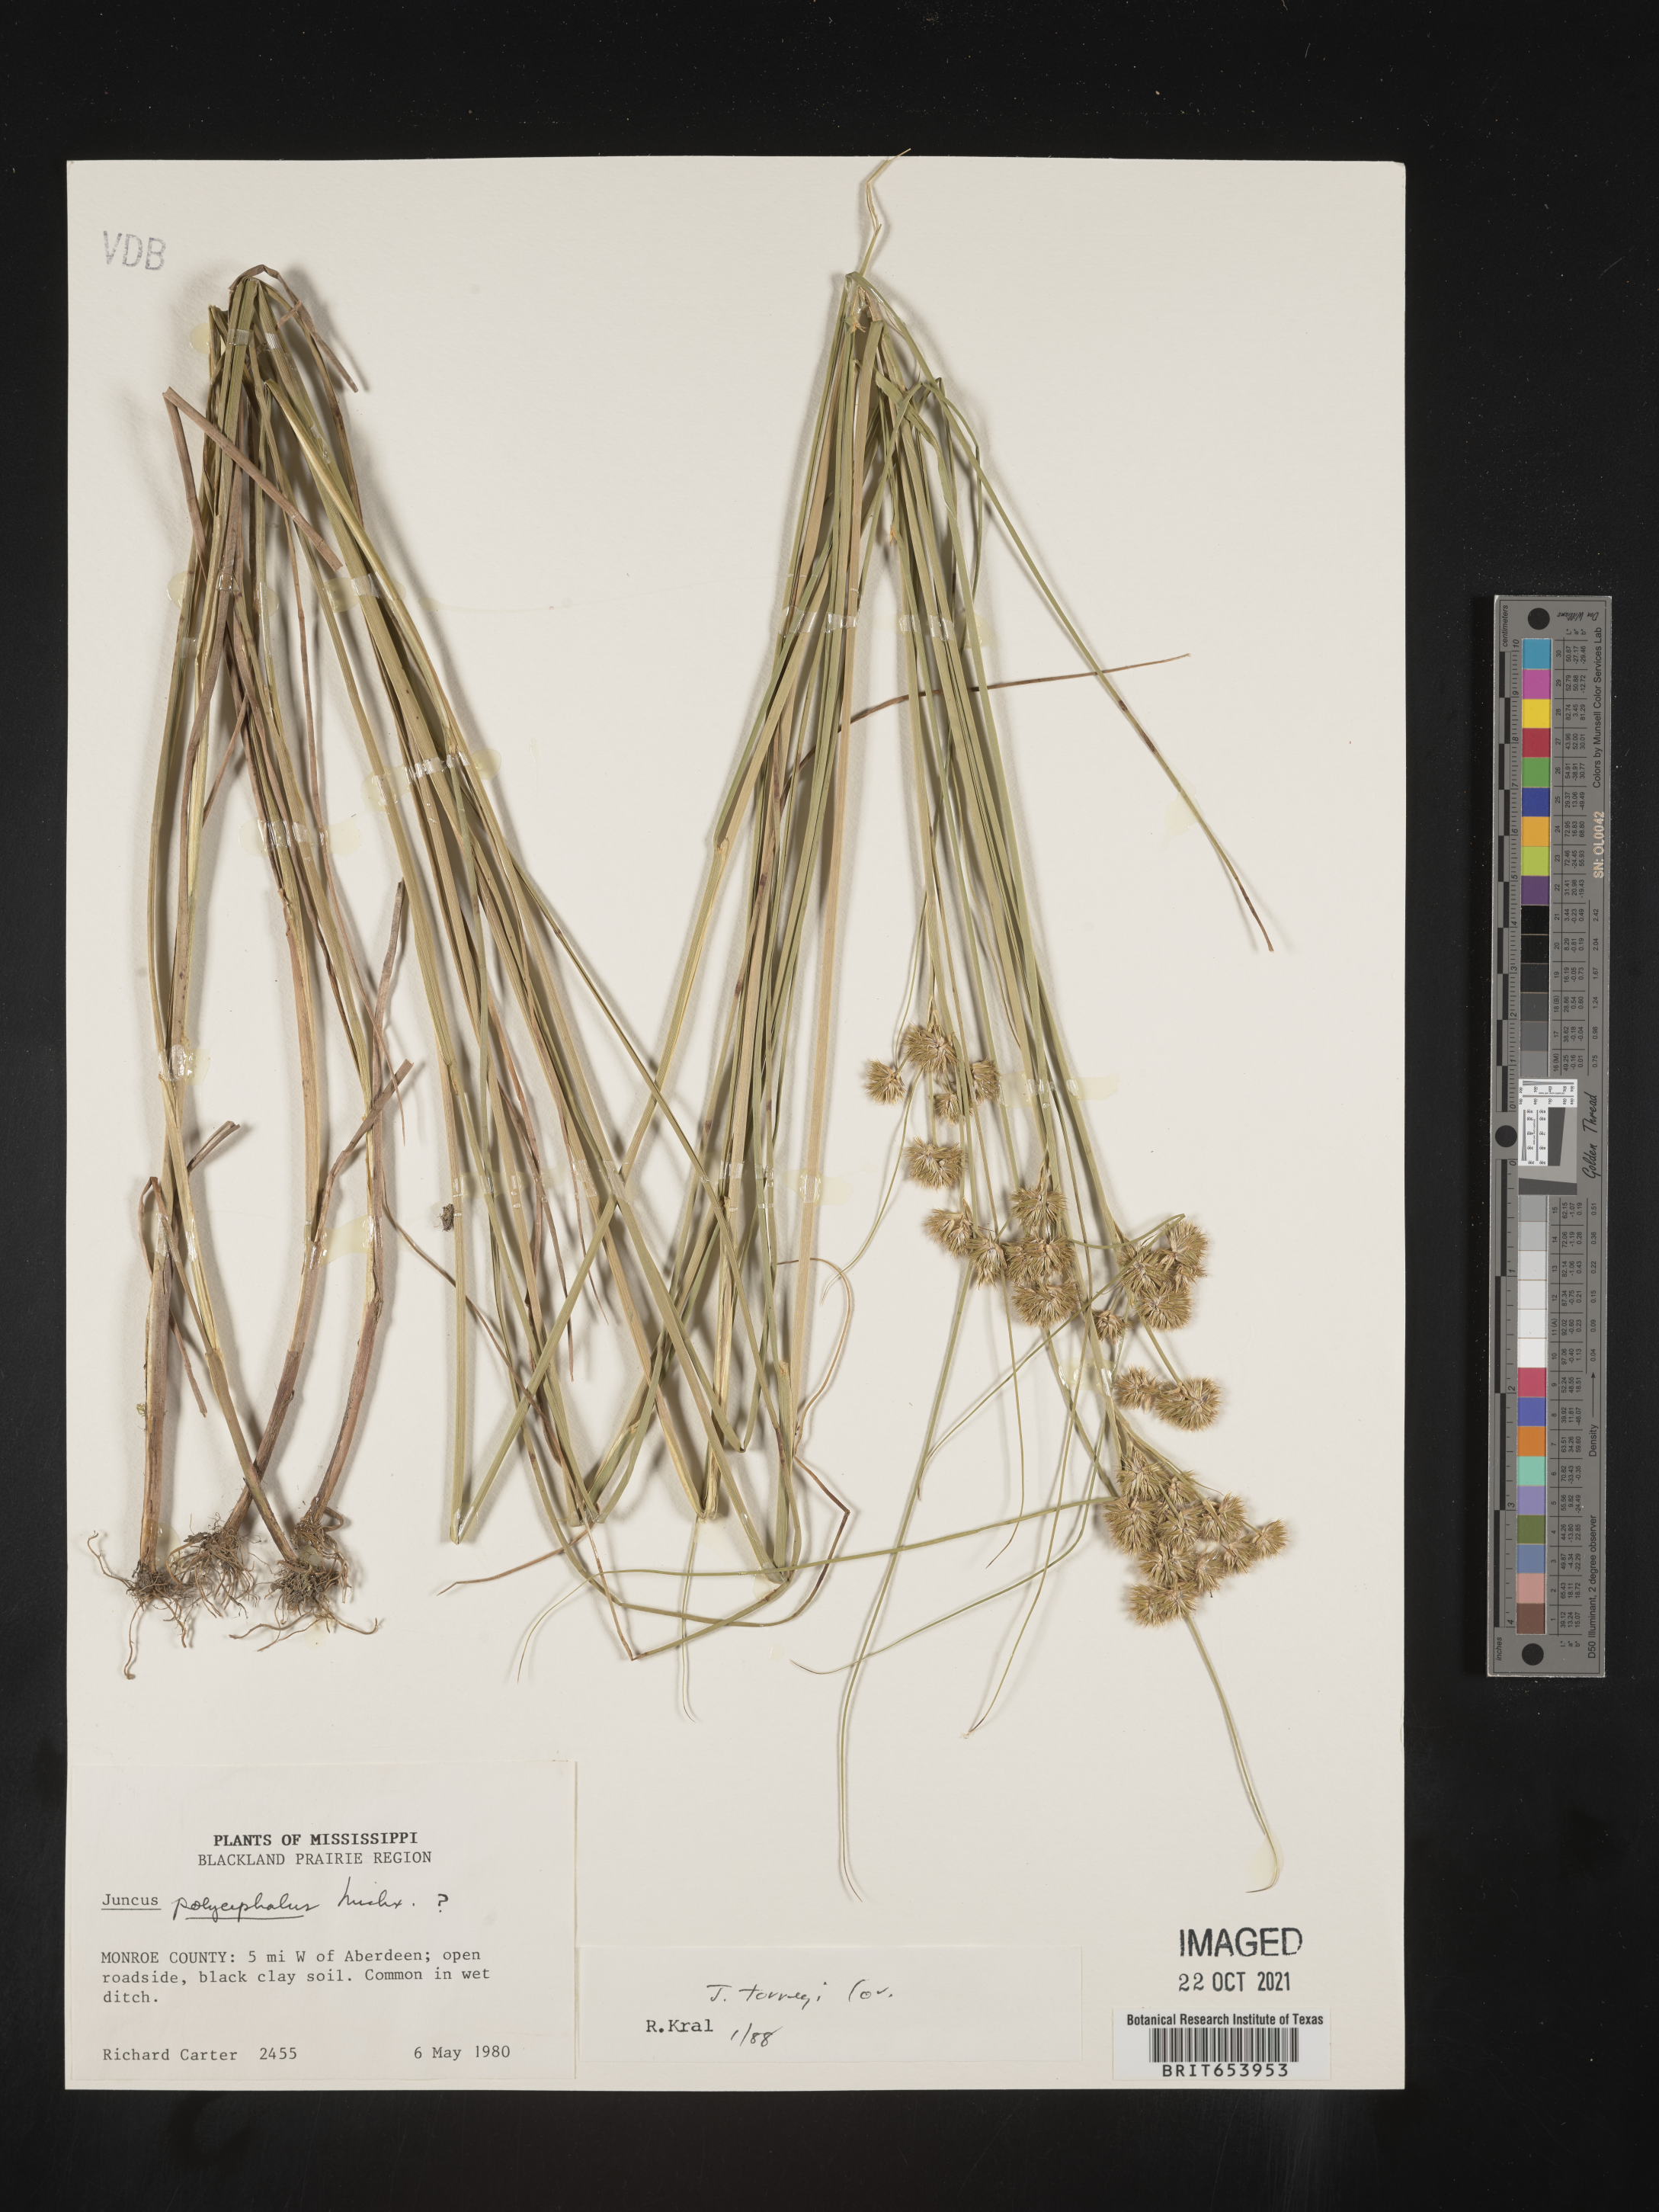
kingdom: Plantae
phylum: Tracheophyta
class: Liliopsida
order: Poales
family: Juncaceae
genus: Juncus
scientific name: Juncus torreyi
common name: Torrey's rush
